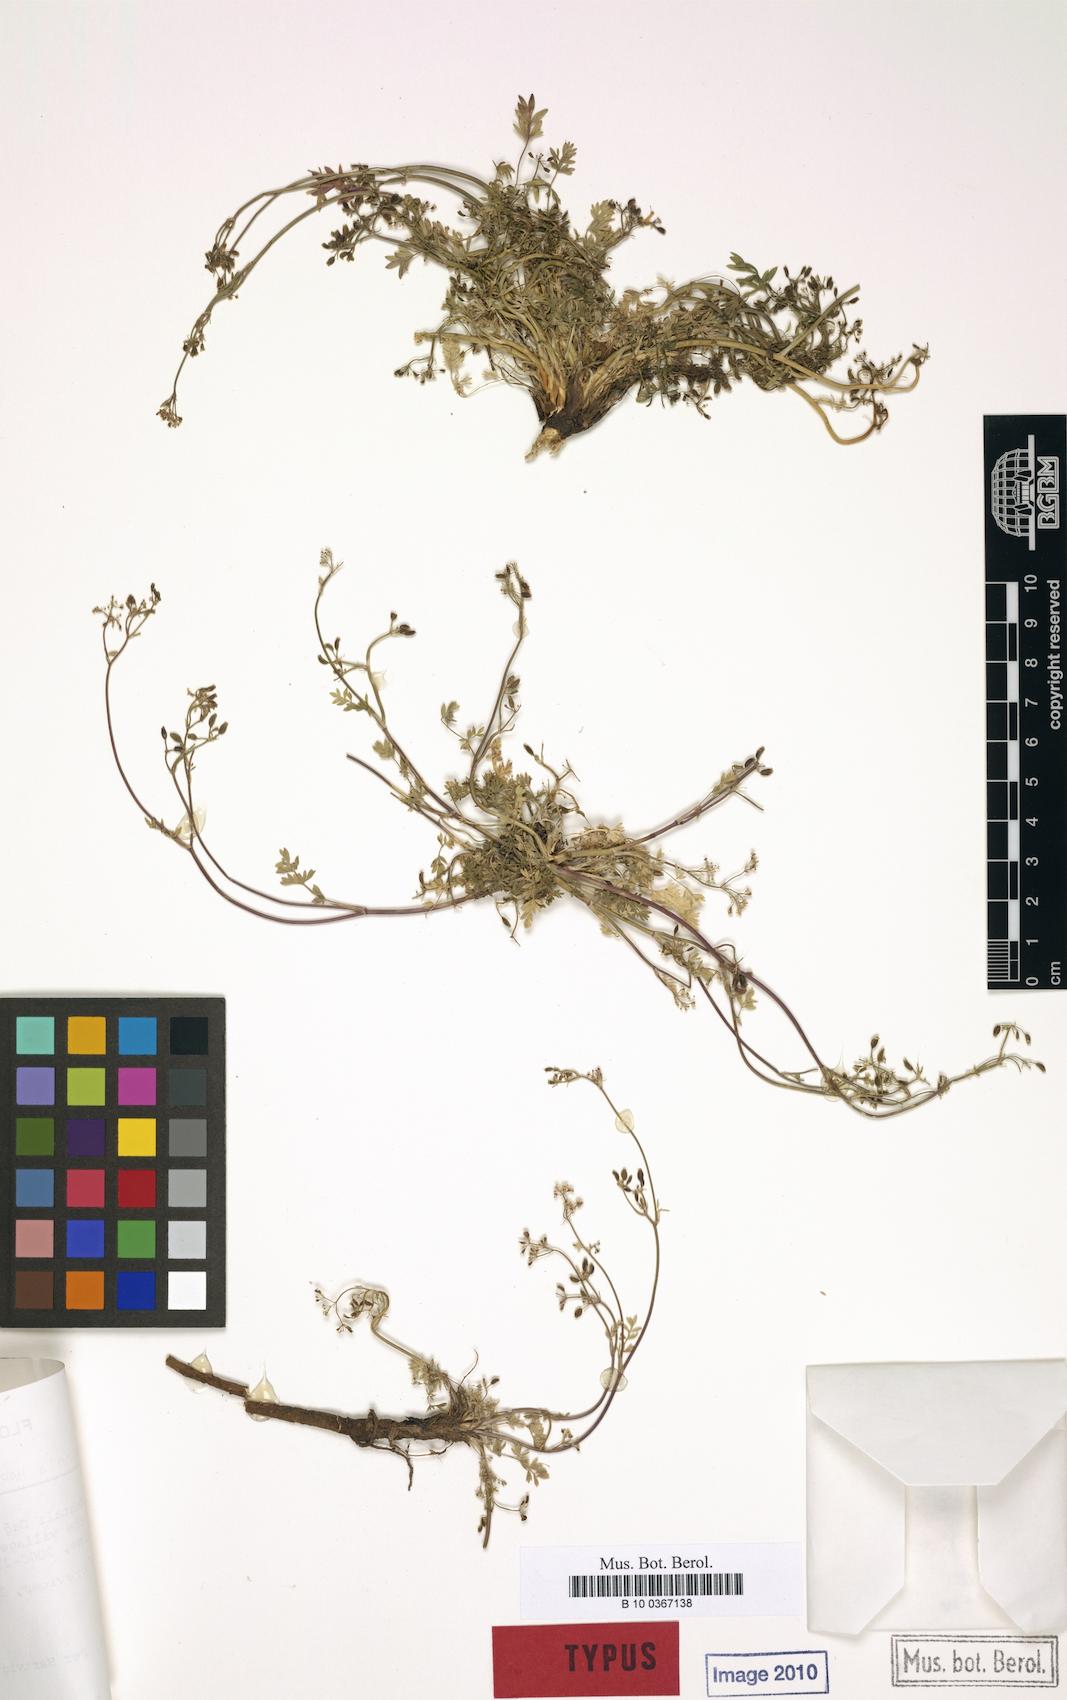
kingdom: Plantae
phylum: Tracheophyta
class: Magnoliopsida
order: Apiales
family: Apiaceae
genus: Carum
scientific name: Carum rupicola
